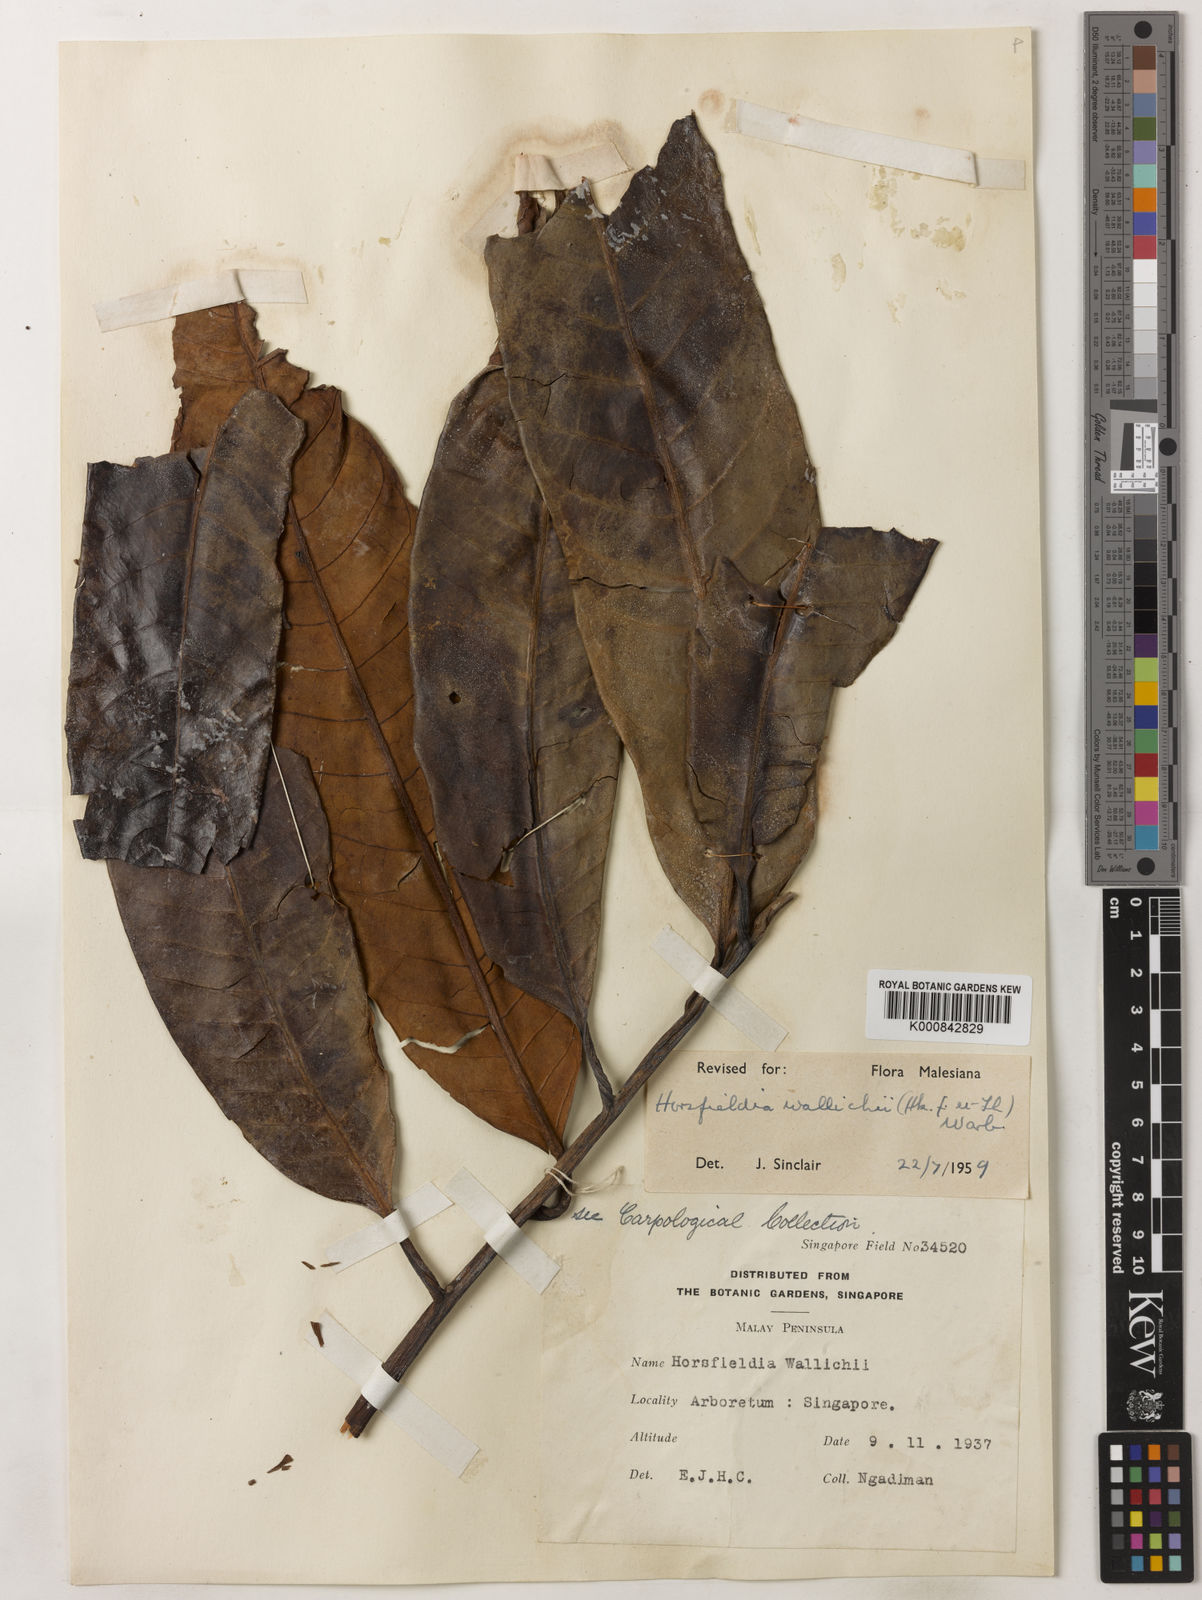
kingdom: Plantae
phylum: Tracheophyta
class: Magnoliopsida
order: Magnoliales
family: Myristicaceae
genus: Horsfieldia
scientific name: Horsfieldia wallichii
